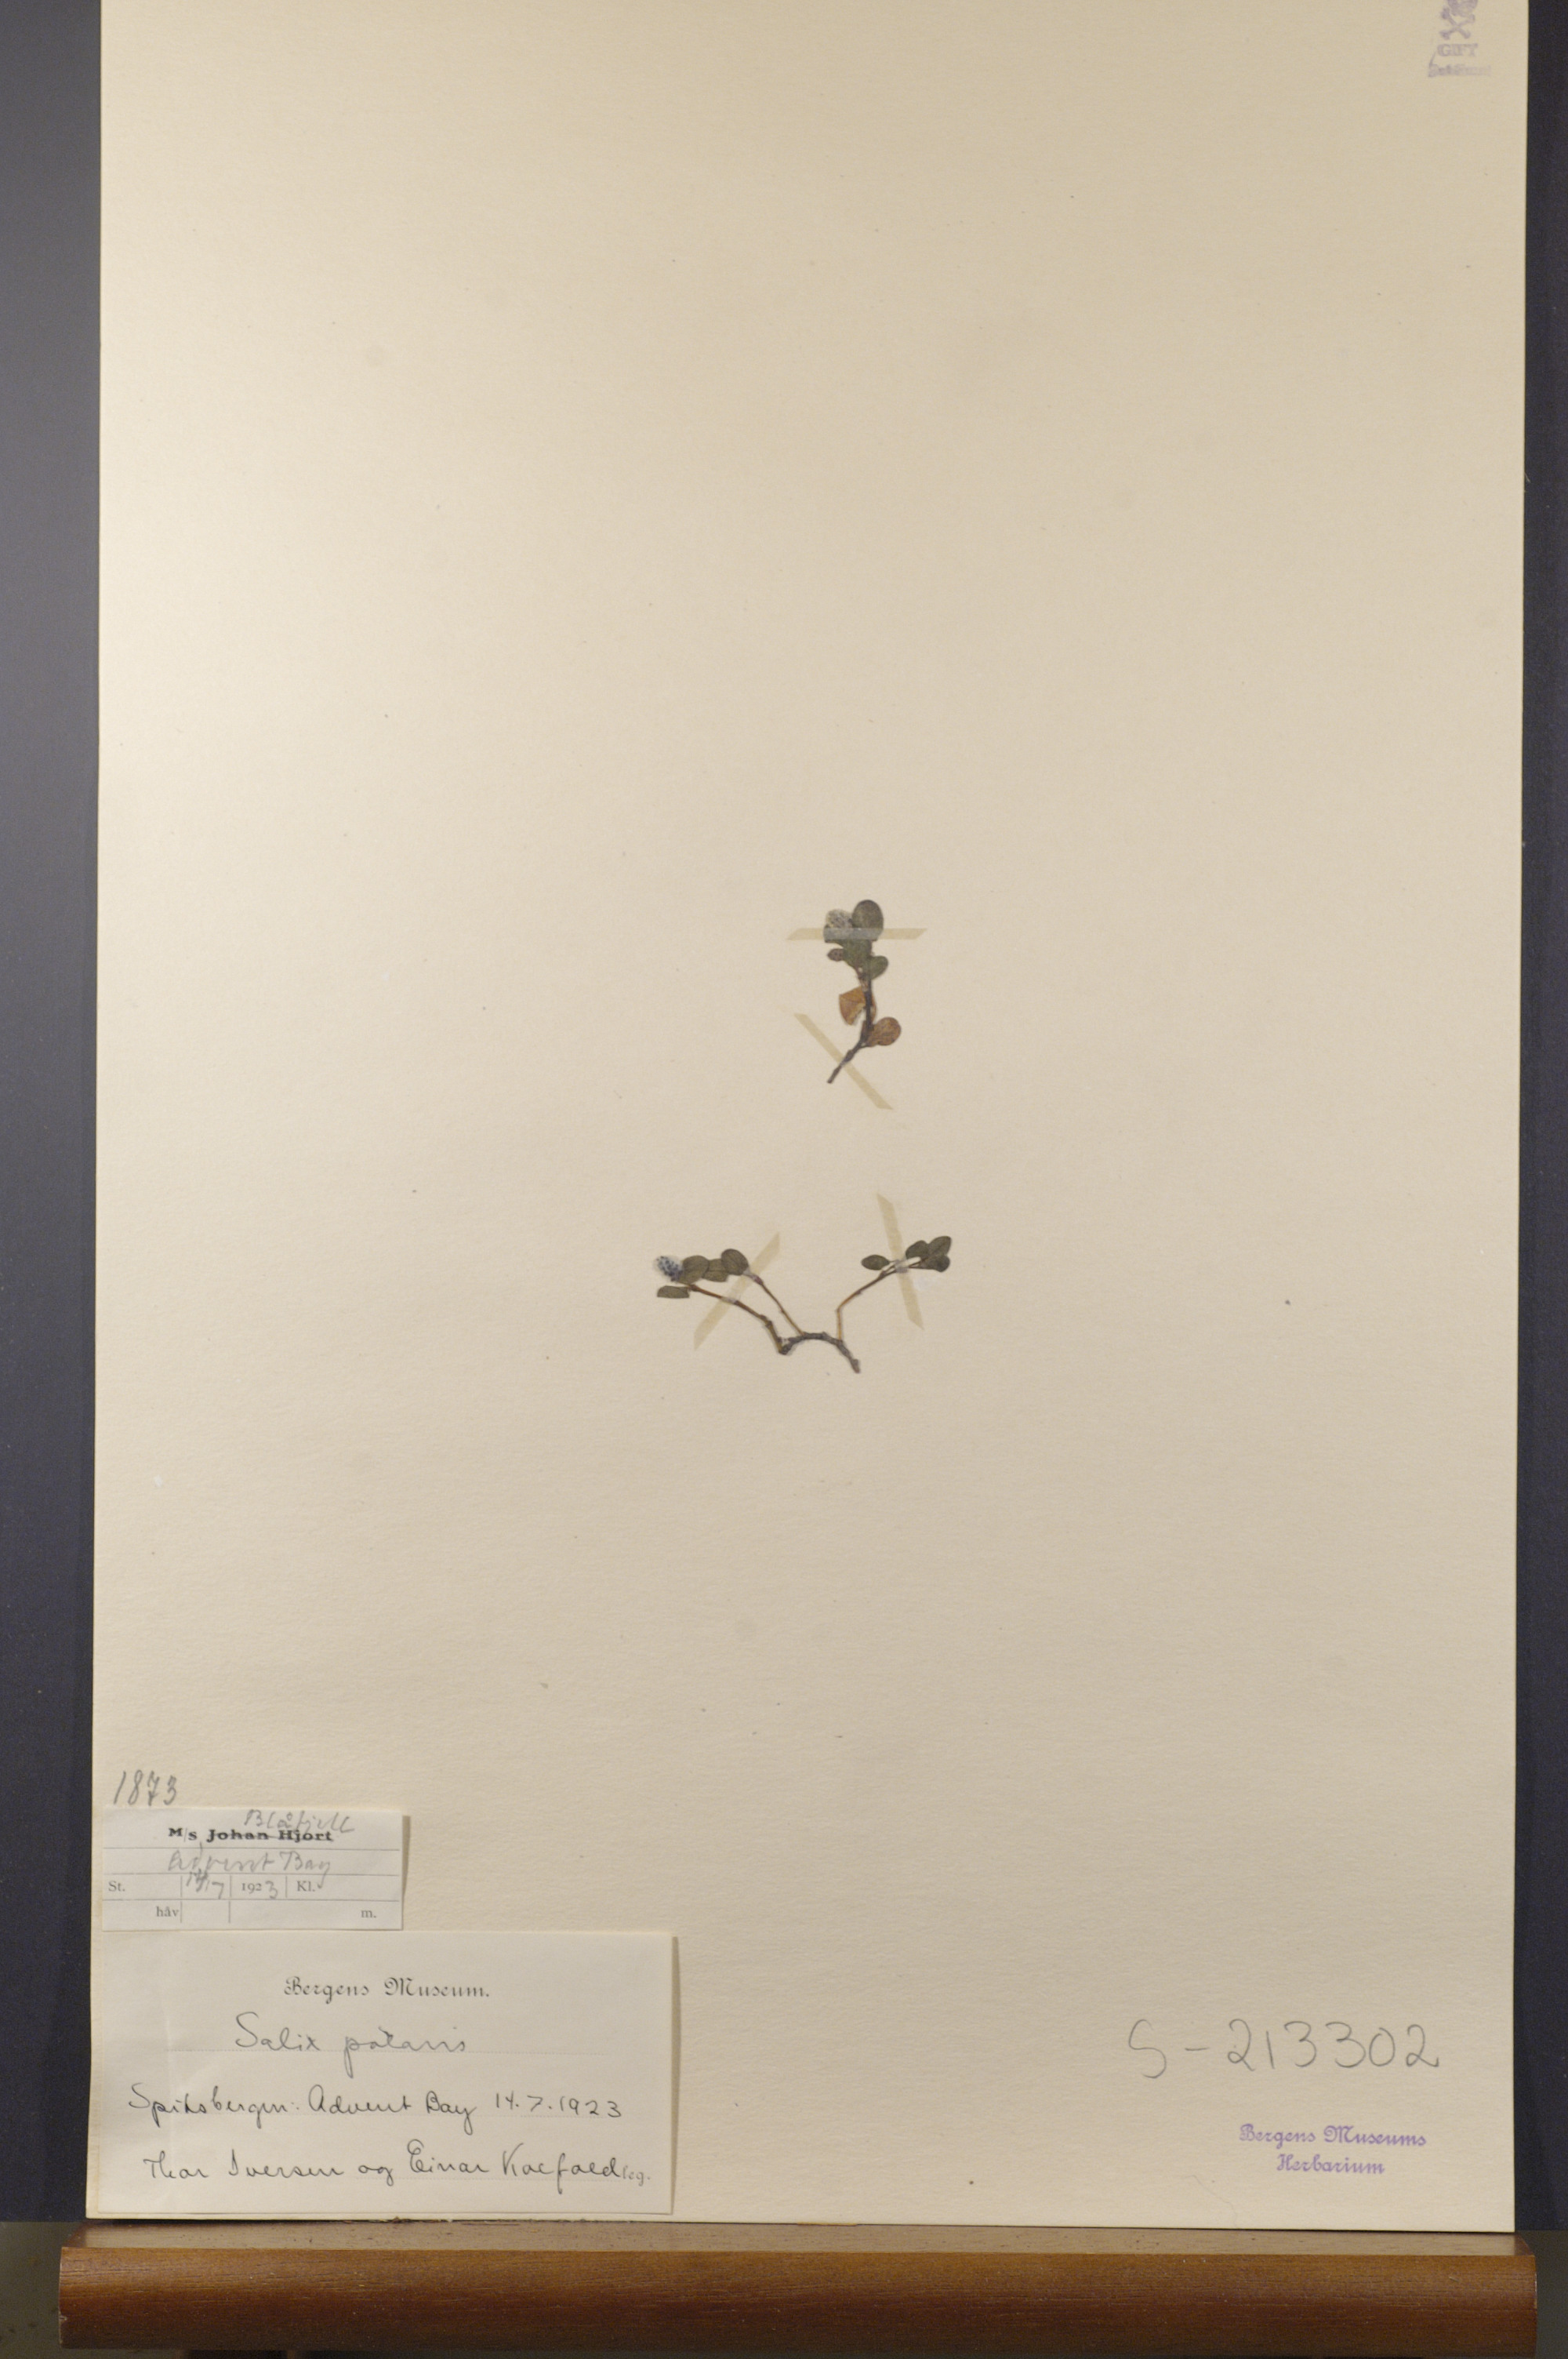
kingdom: Plantae
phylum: Tracheophyta
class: Magnoliopsida
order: Malpighiales
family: Salicaceae
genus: Salix
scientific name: Salix polaris
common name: Polar willow
